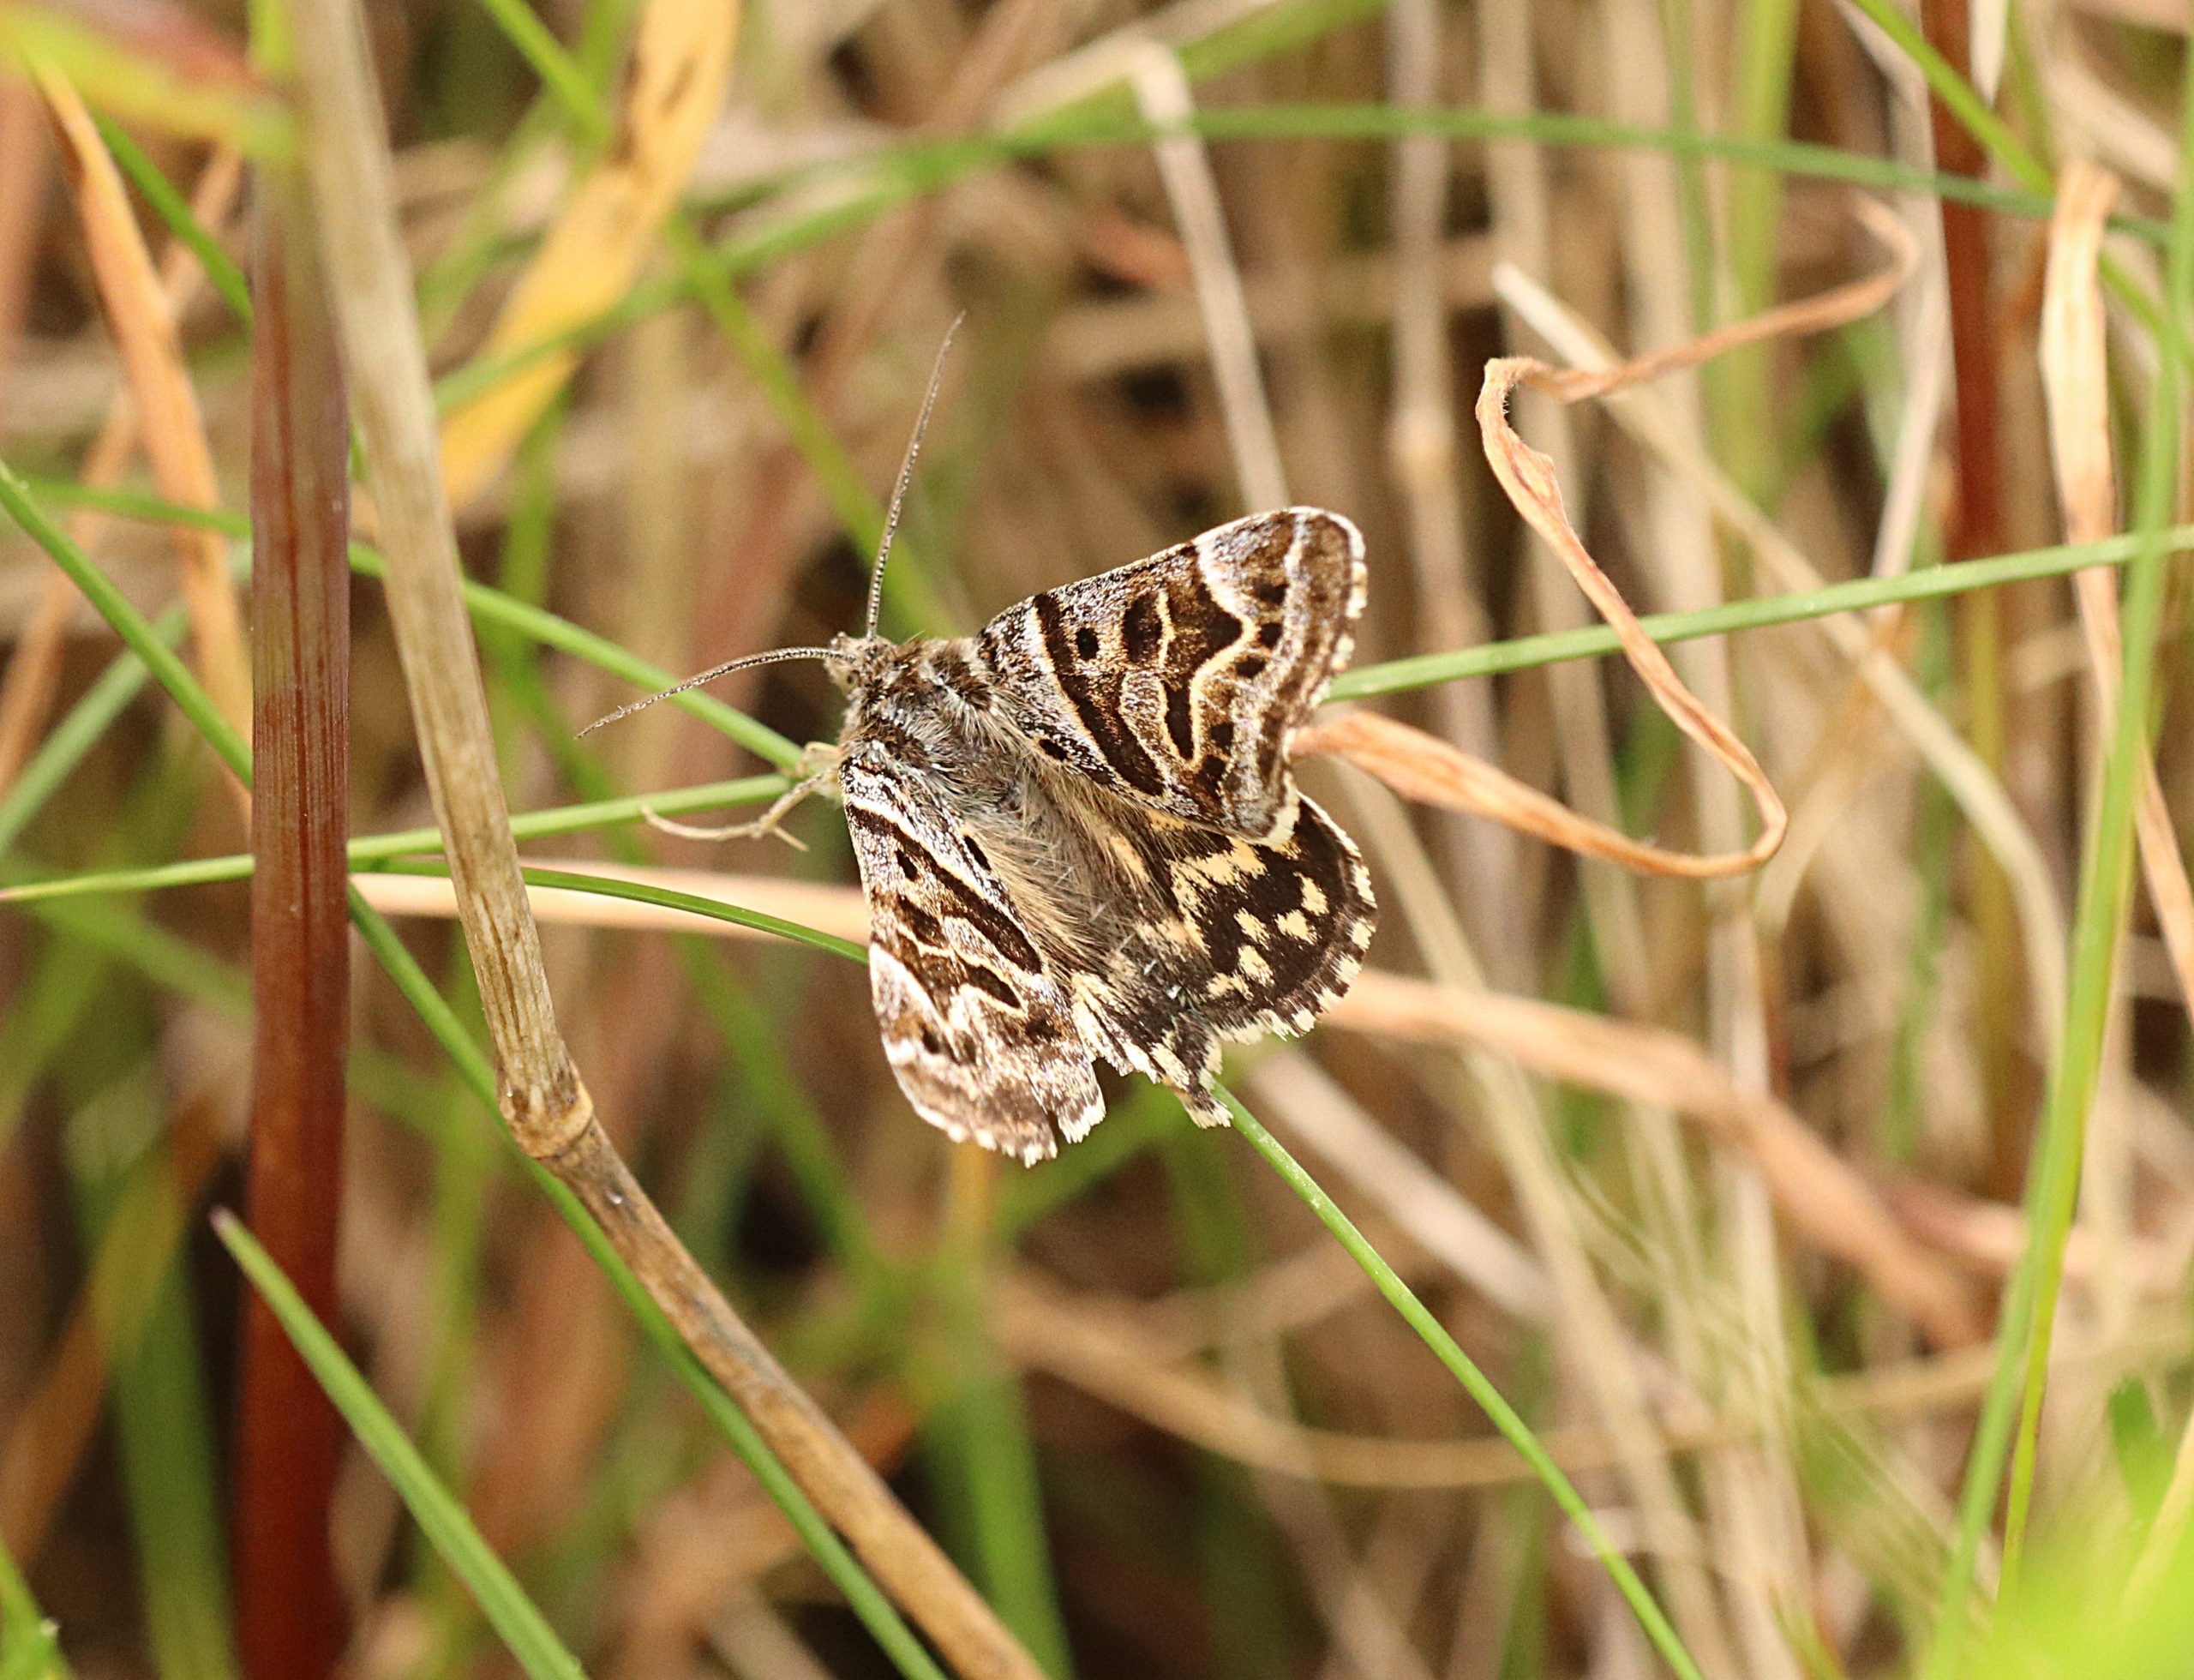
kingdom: Animalia
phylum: Arthropoda
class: Insecta
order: Lepidoptera
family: Erebidae
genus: Callistege
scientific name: Callistege mi
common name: Marmoreret kløverugle
